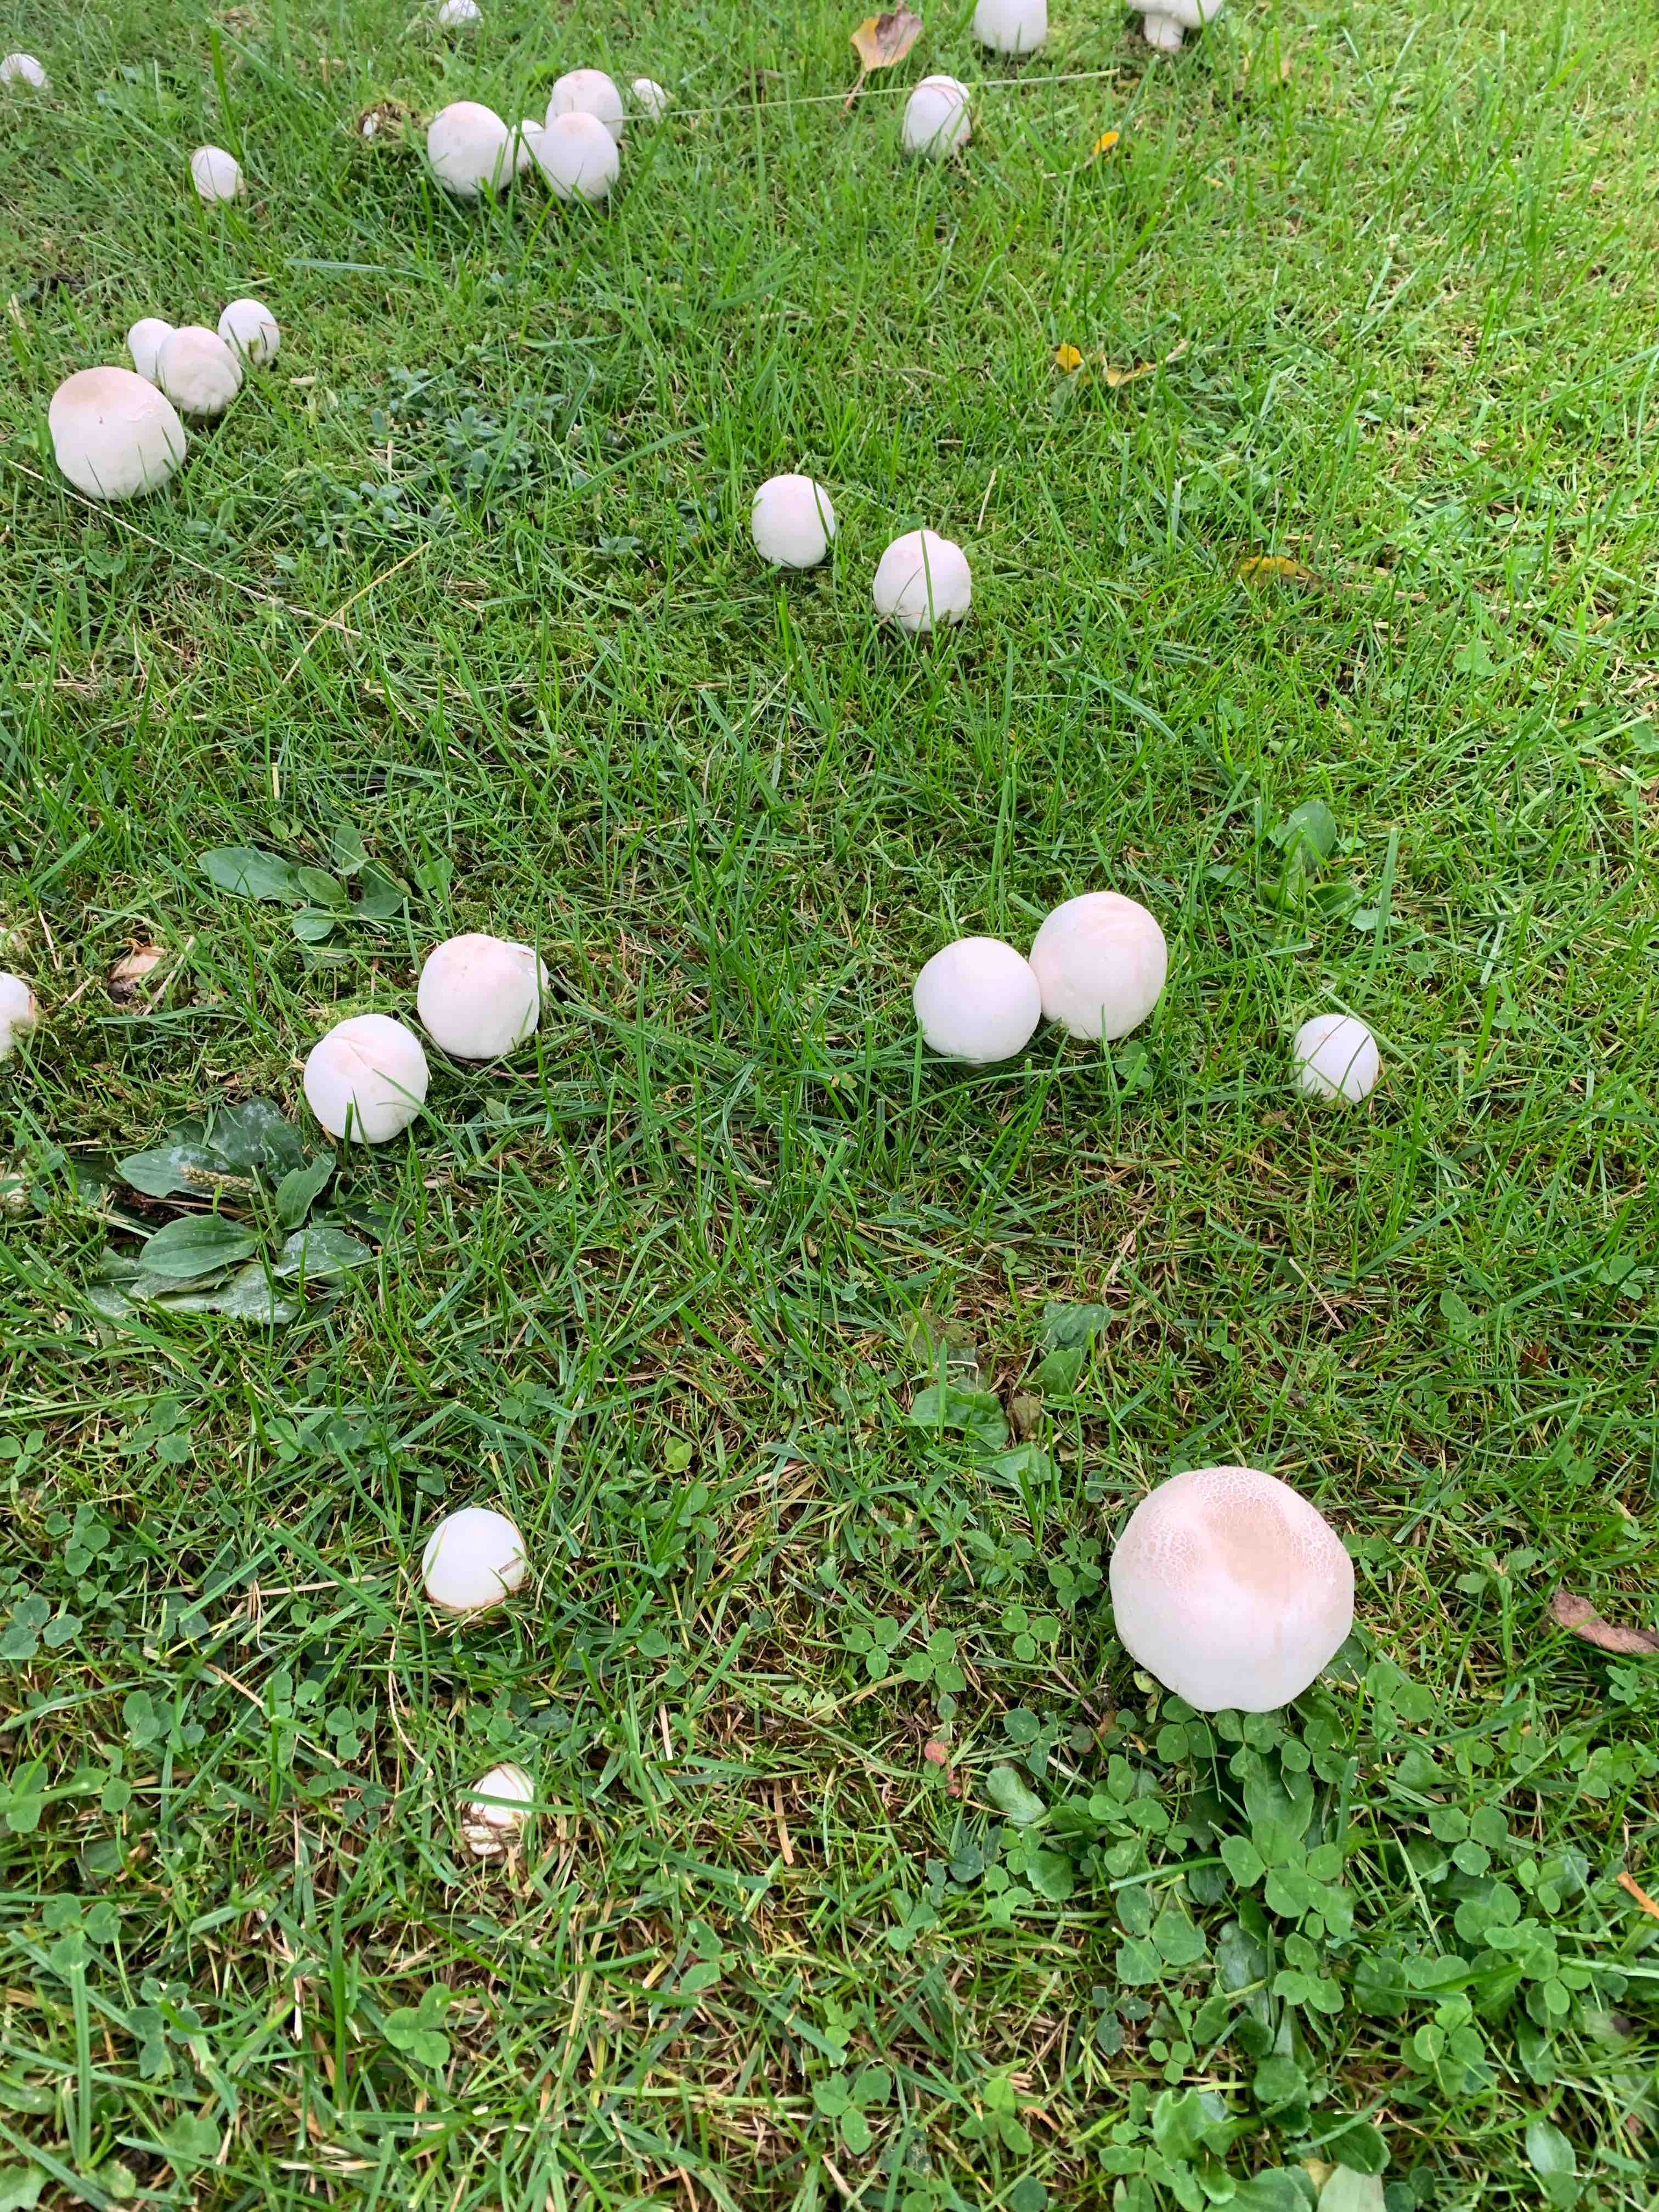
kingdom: Fungi
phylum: Basidiomycota
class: Agaricomycetes
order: Agaricales
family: Agaricaceae
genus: Agaricus
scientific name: Agaricus xanthodermus
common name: karbol-champignon
